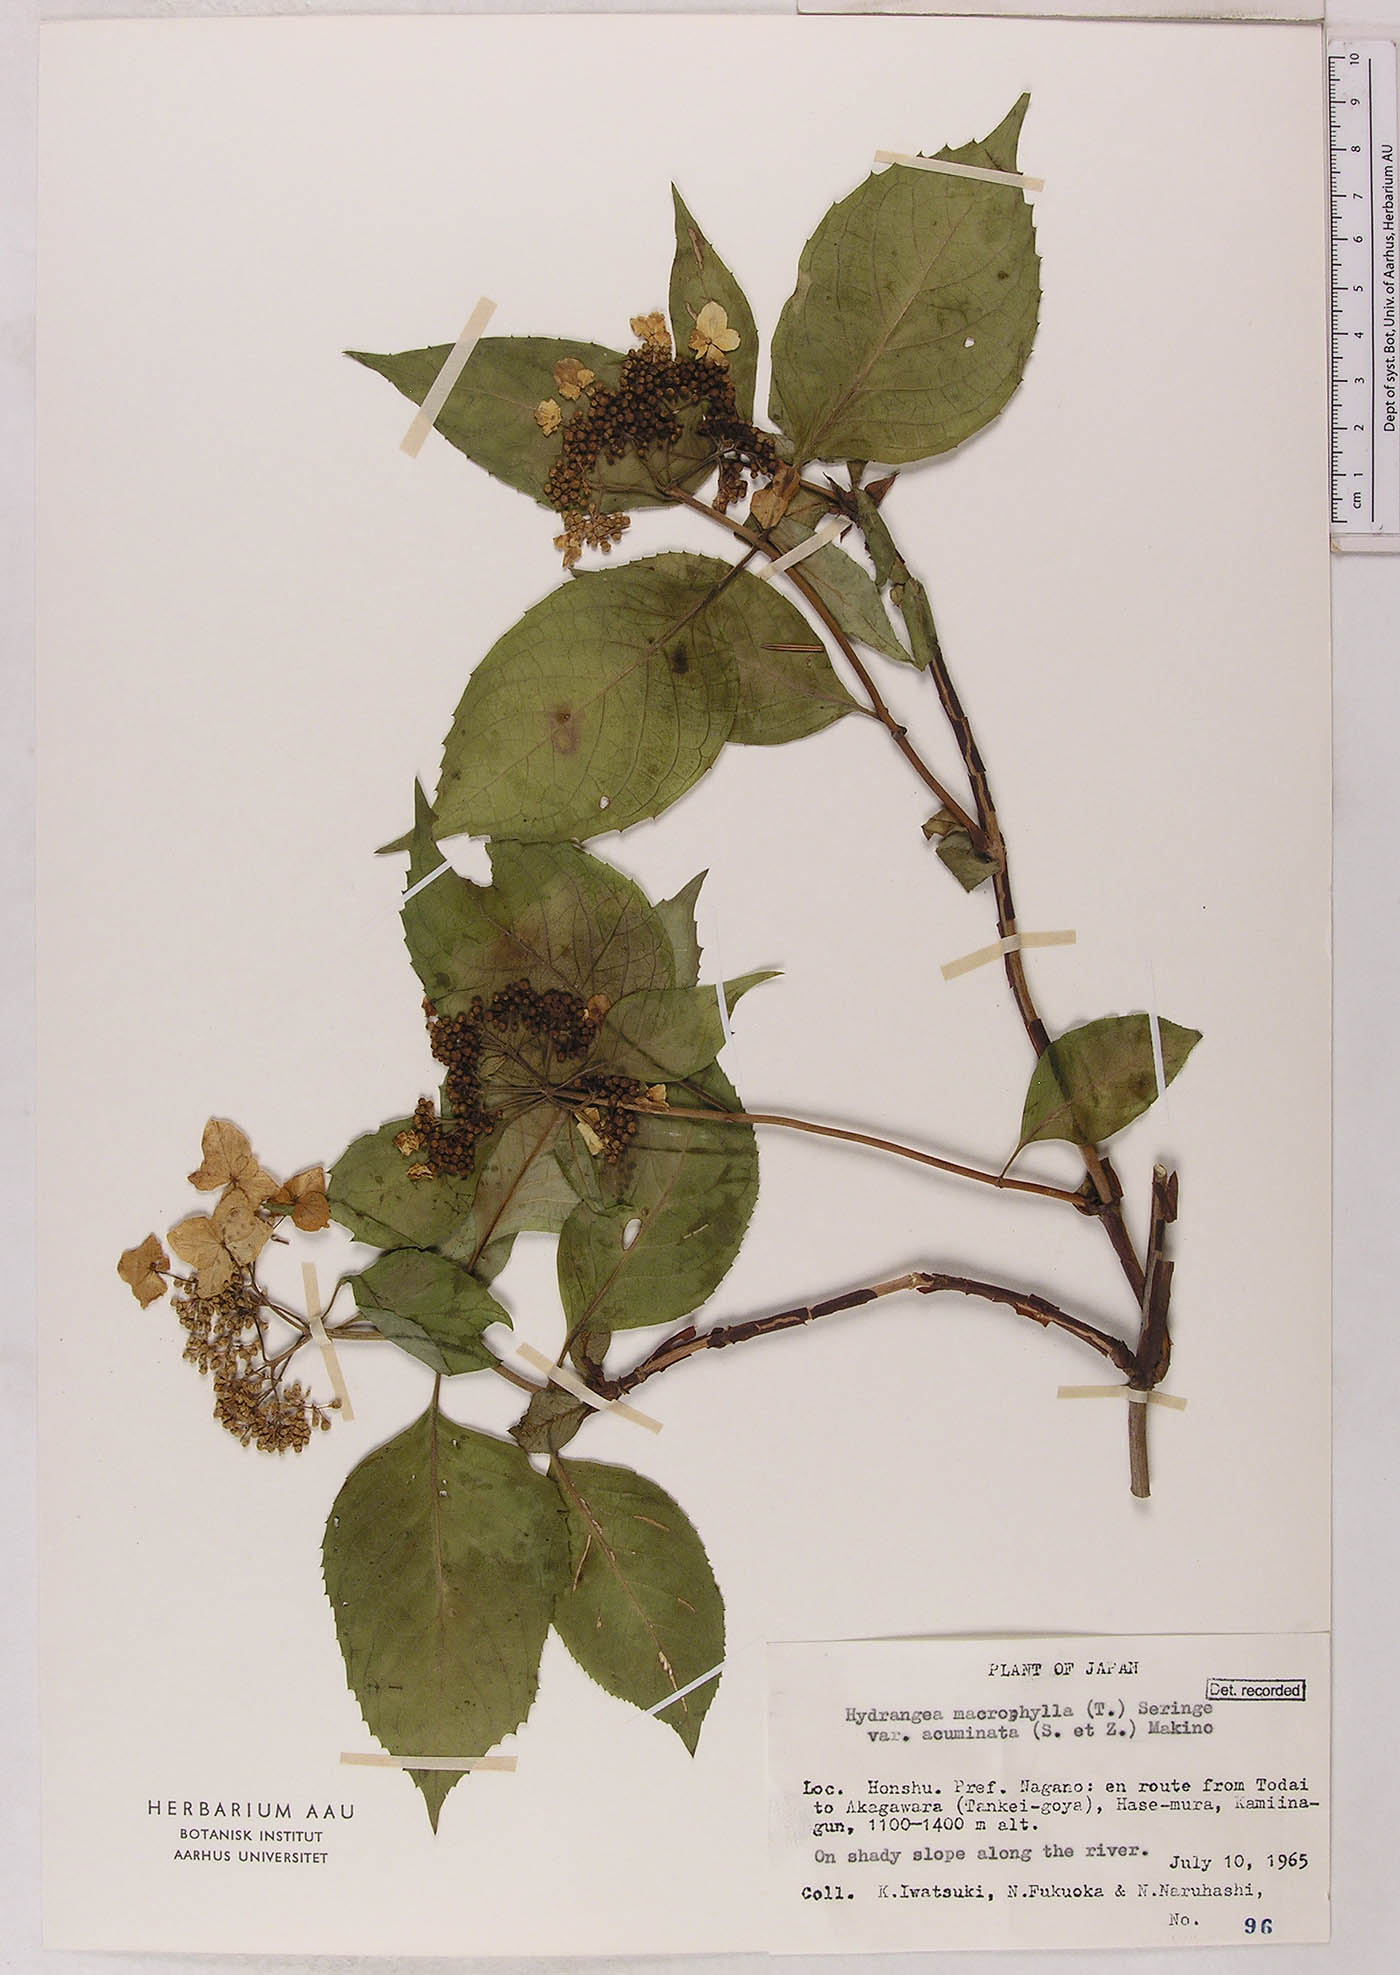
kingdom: Plantae
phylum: Tracheophyta
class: Magnoliopsida
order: Cornales
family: Hydrangeaceae
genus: Hydrangea
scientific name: Hydrangea serrata
